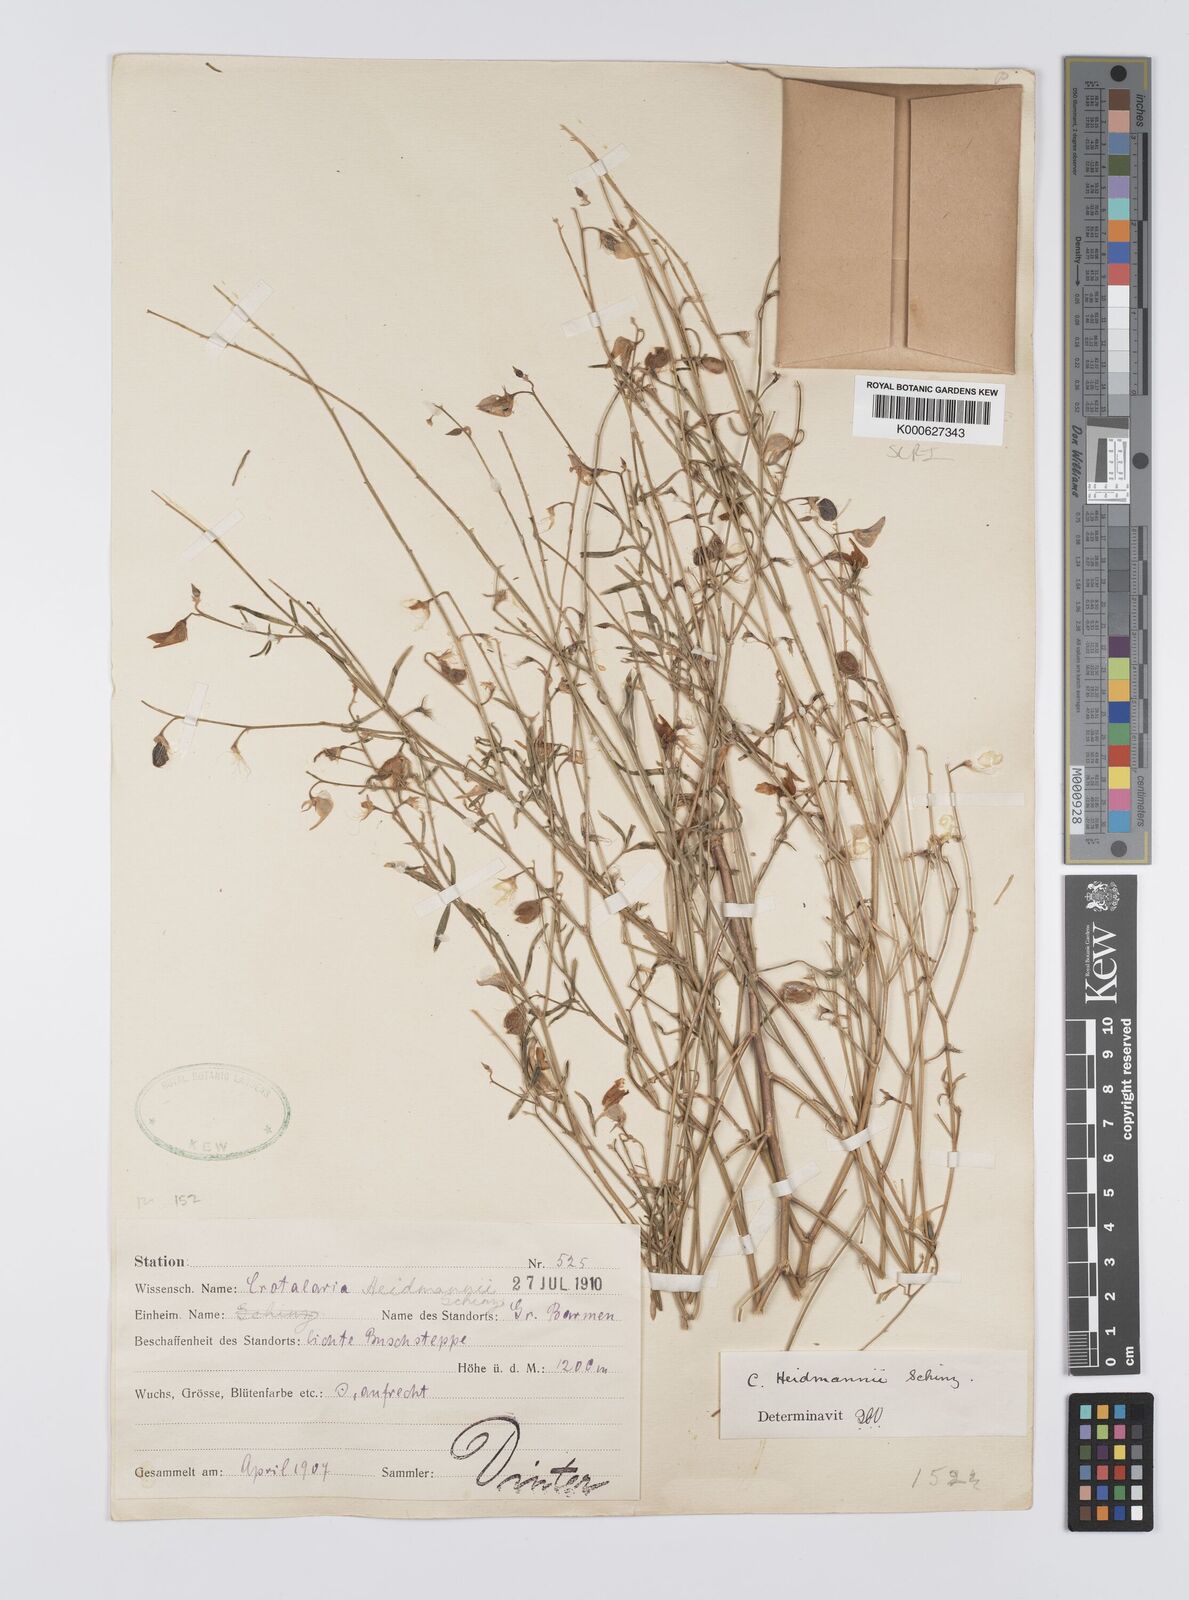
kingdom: Plantae
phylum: Tracheophyta
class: Magnoliopsida
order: Fabales
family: Fabaceae
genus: Crotalaria
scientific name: Crotalaria heidmannii
